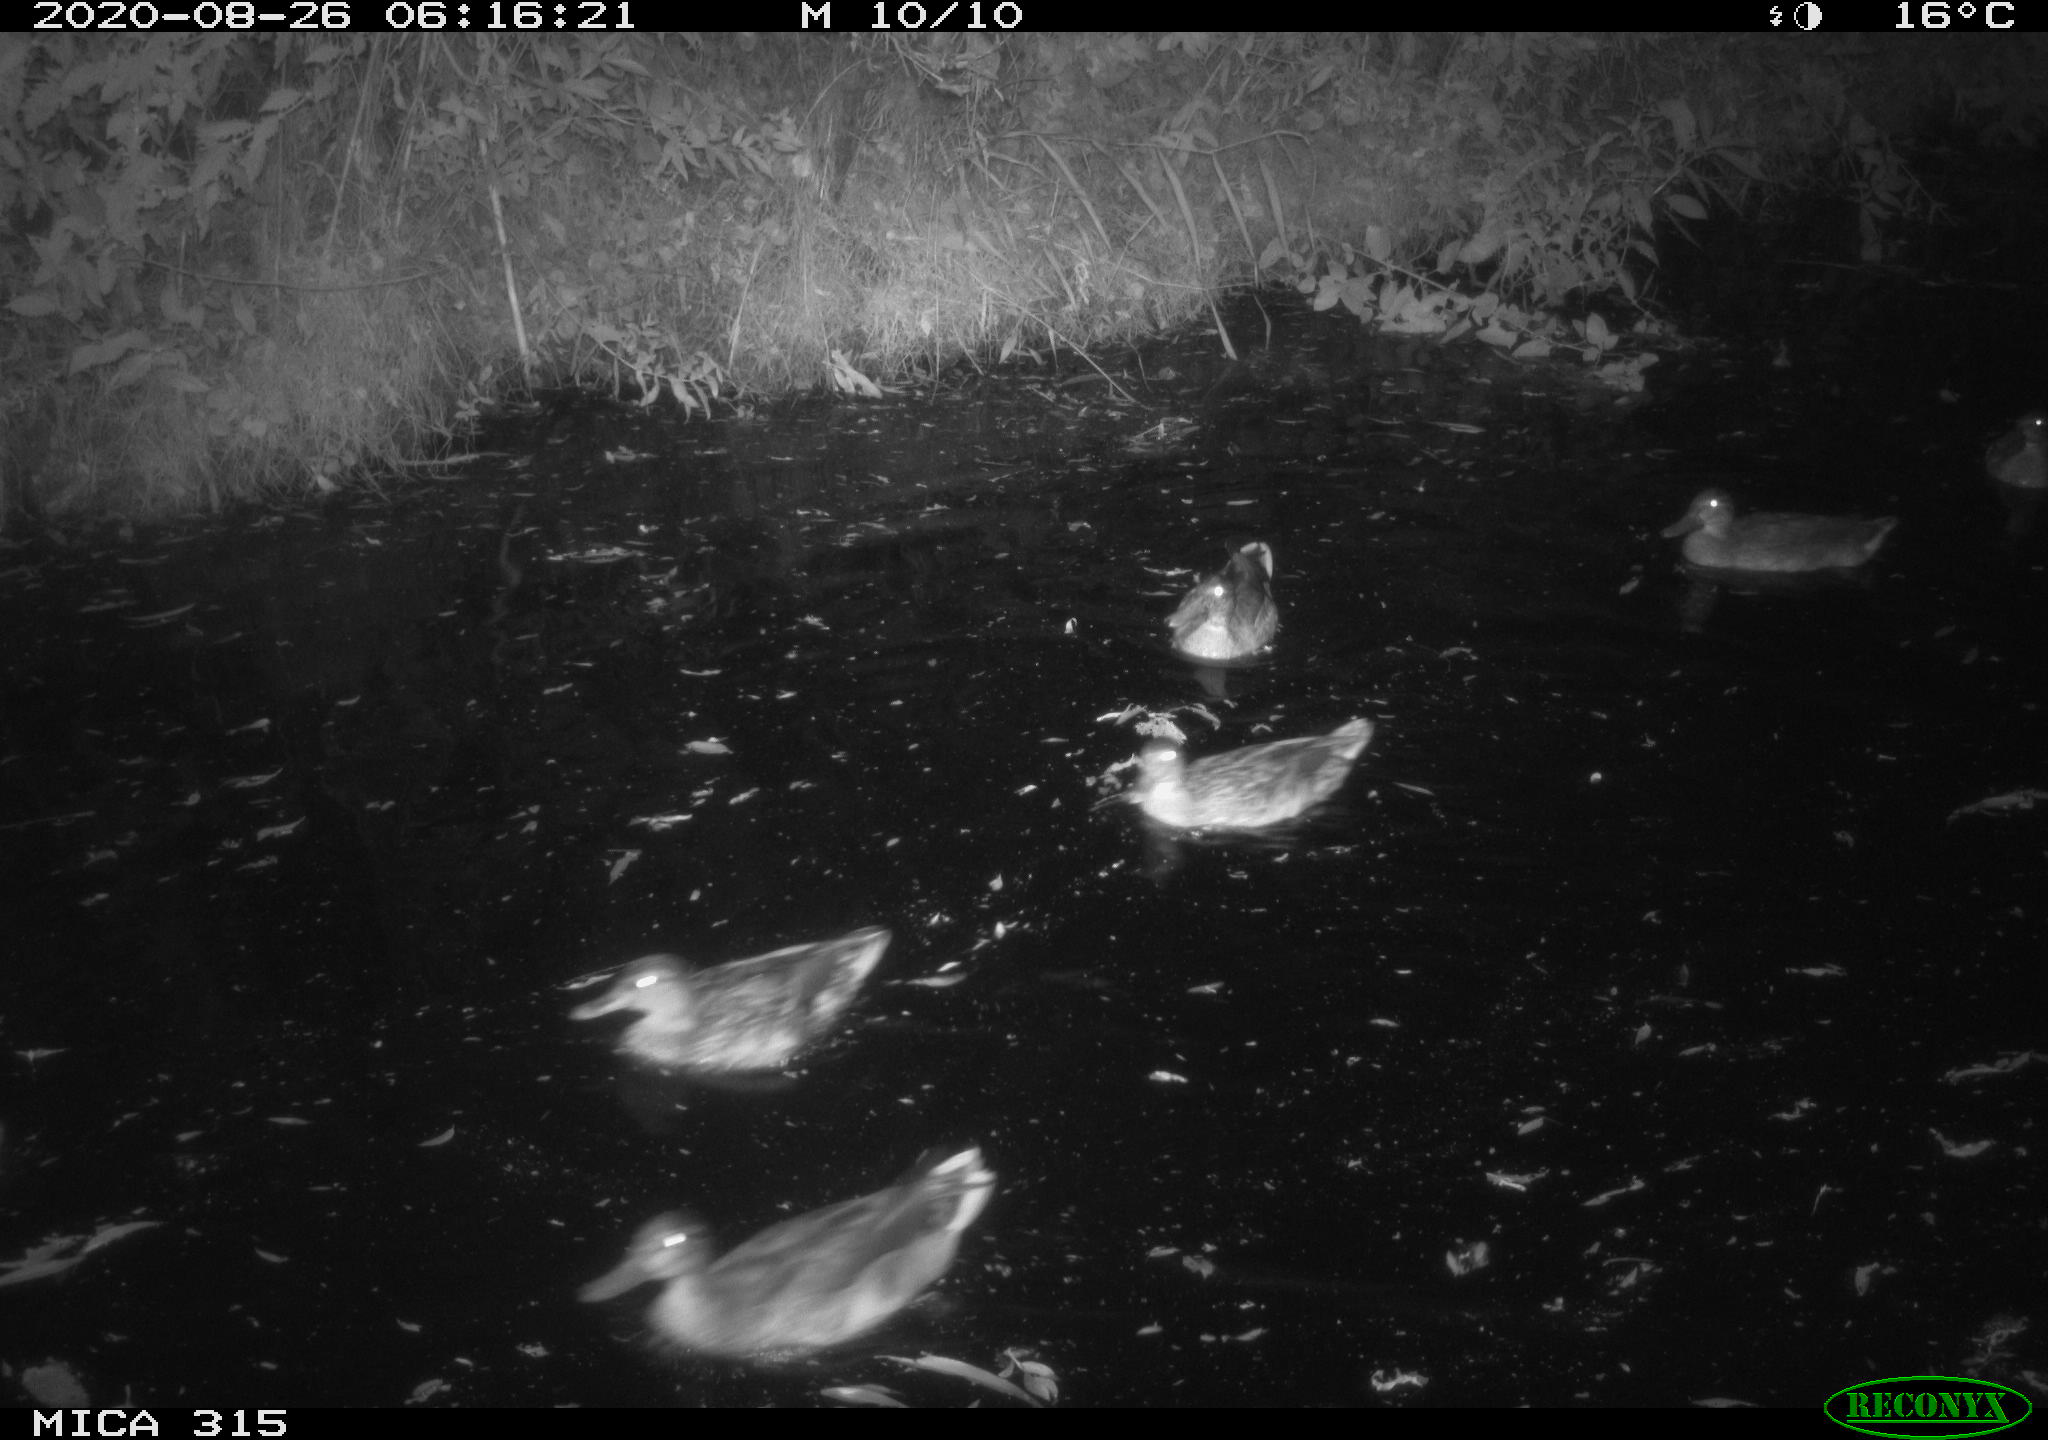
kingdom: Animalia
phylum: Chordata
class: Aves
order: Anseriformes
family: Anatidae
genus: Anas
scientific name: Anas platyrhynchos
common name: Mallard
